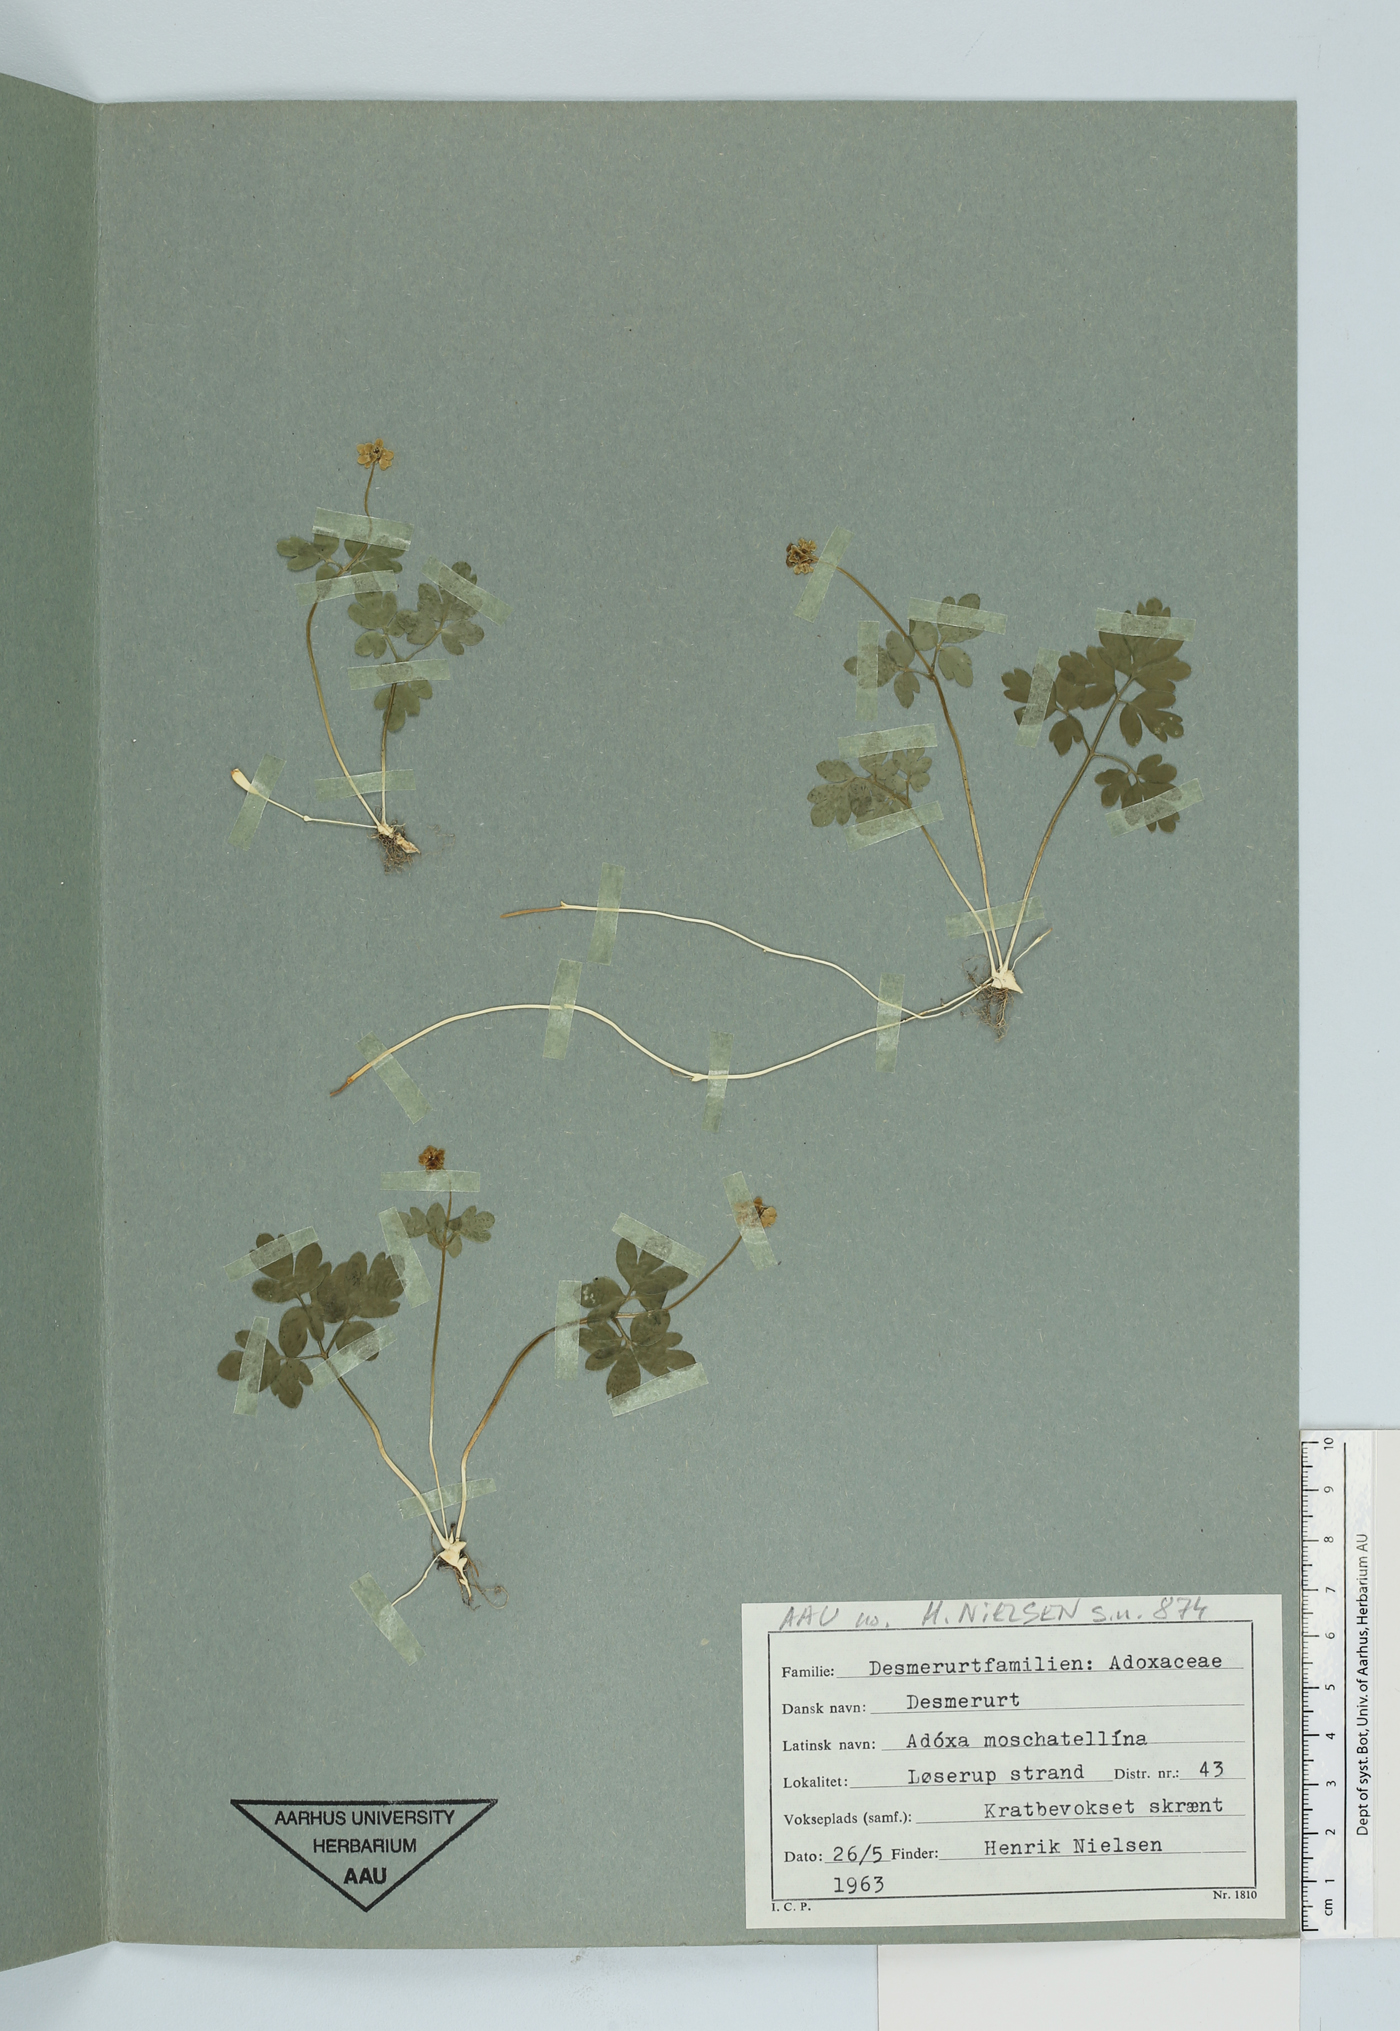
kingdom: Plantae
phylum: Tracheophyta
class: Magnoliopsida
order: Dipsacales
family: Viburnaceae
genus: Adoxa
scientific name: Adoxa moschatellina
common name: Moschatel
